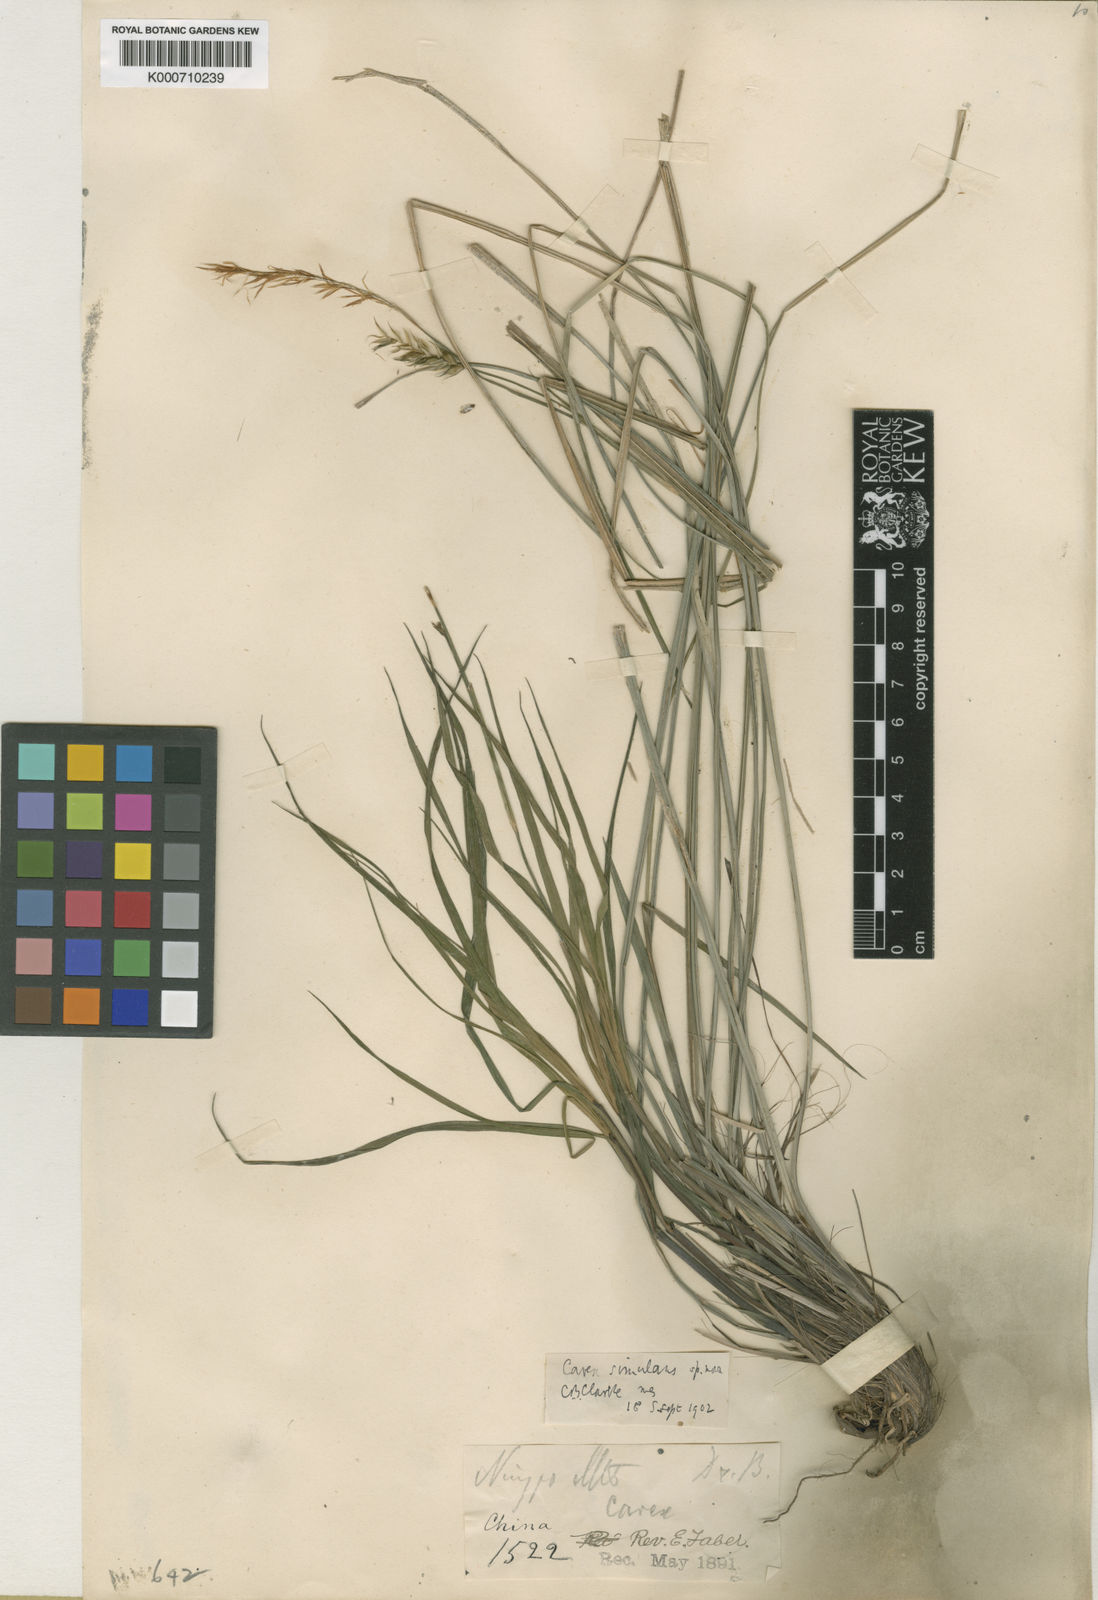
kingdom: Plantae
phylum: Tracheophyta
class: Liliopsida
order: Poales
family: Cyperaceae
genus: Carex
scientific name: Carex simulans
